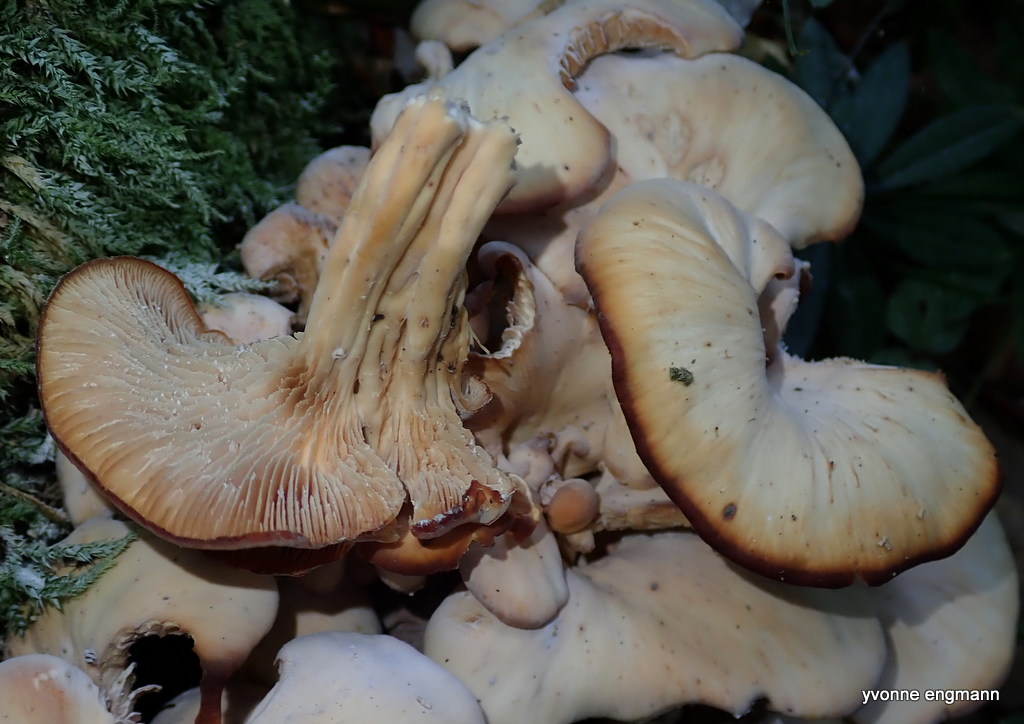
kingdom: Fungi
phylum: Basidiomycota
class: Agaricomycetes
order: Russulales
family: Auriscalpiaceae
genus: Lentinellus
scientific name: Lentinellus cochleatus
